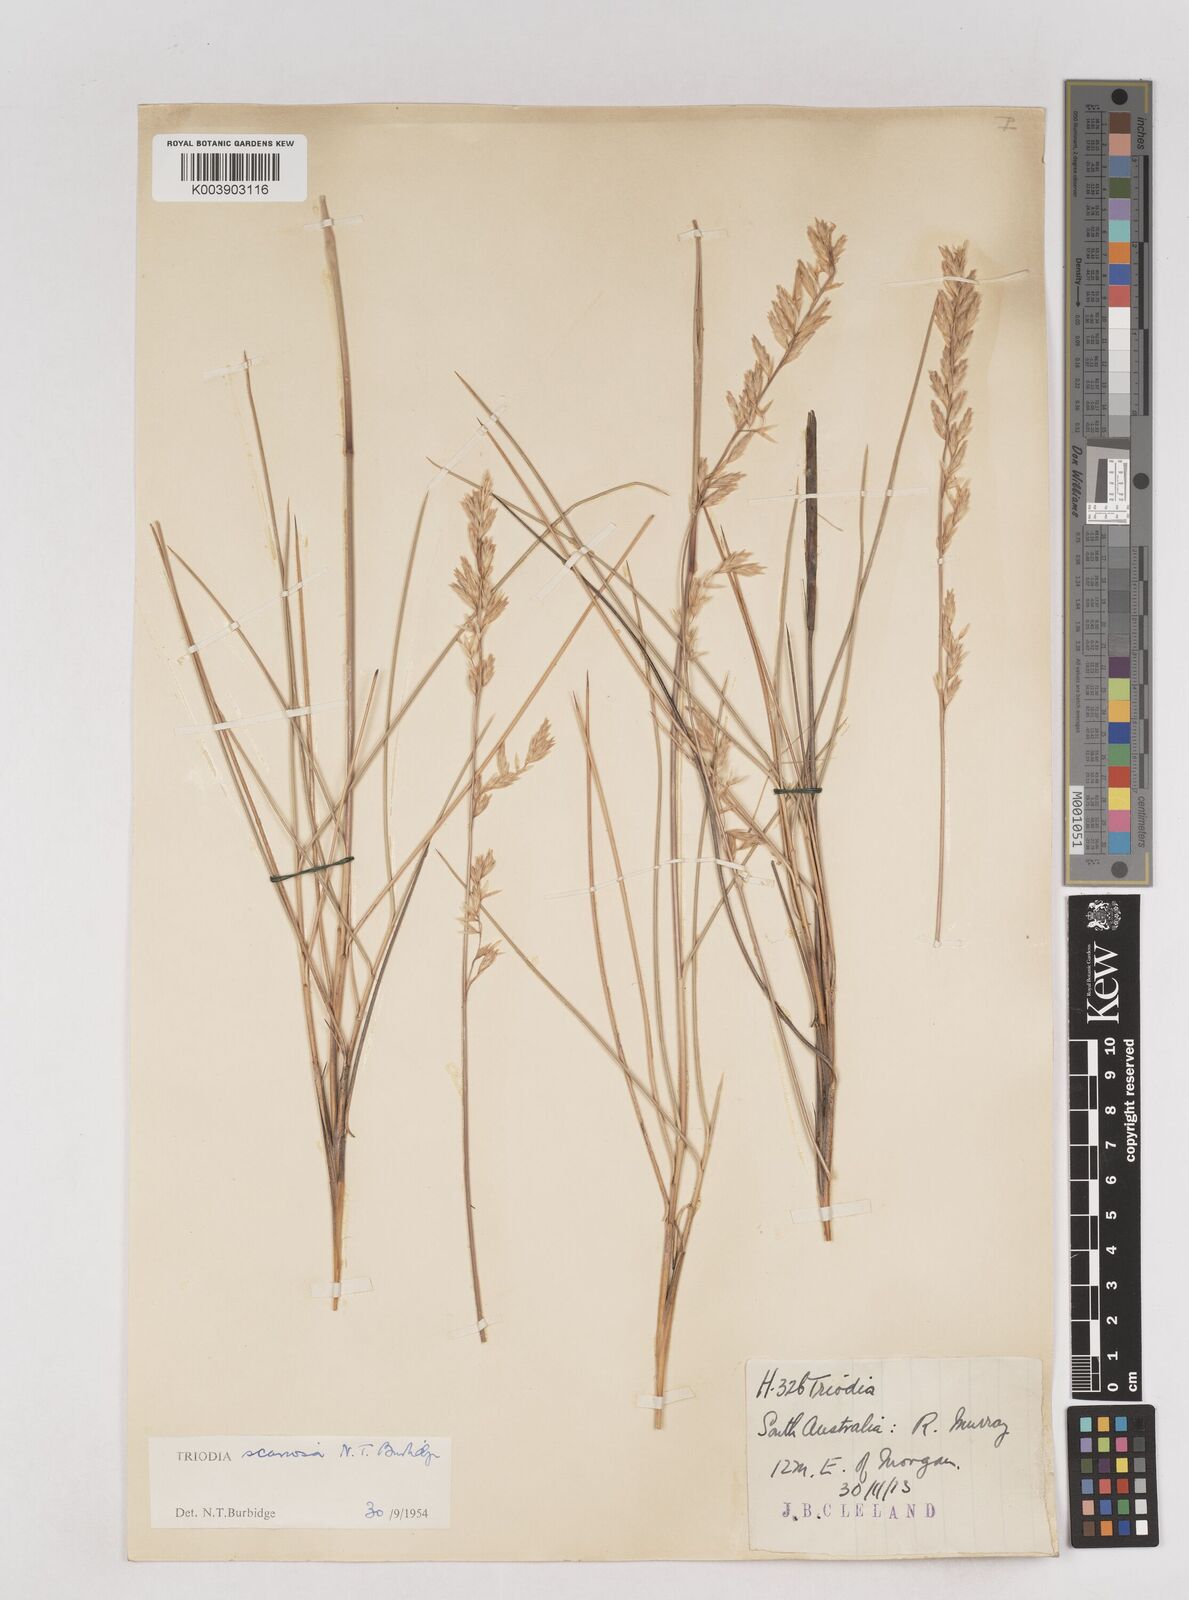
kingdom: Plantae
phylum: Tracheophyta
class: Liliopsida
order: Poales
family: Poaceae
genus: Triodia
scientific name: Triodia scariosa
